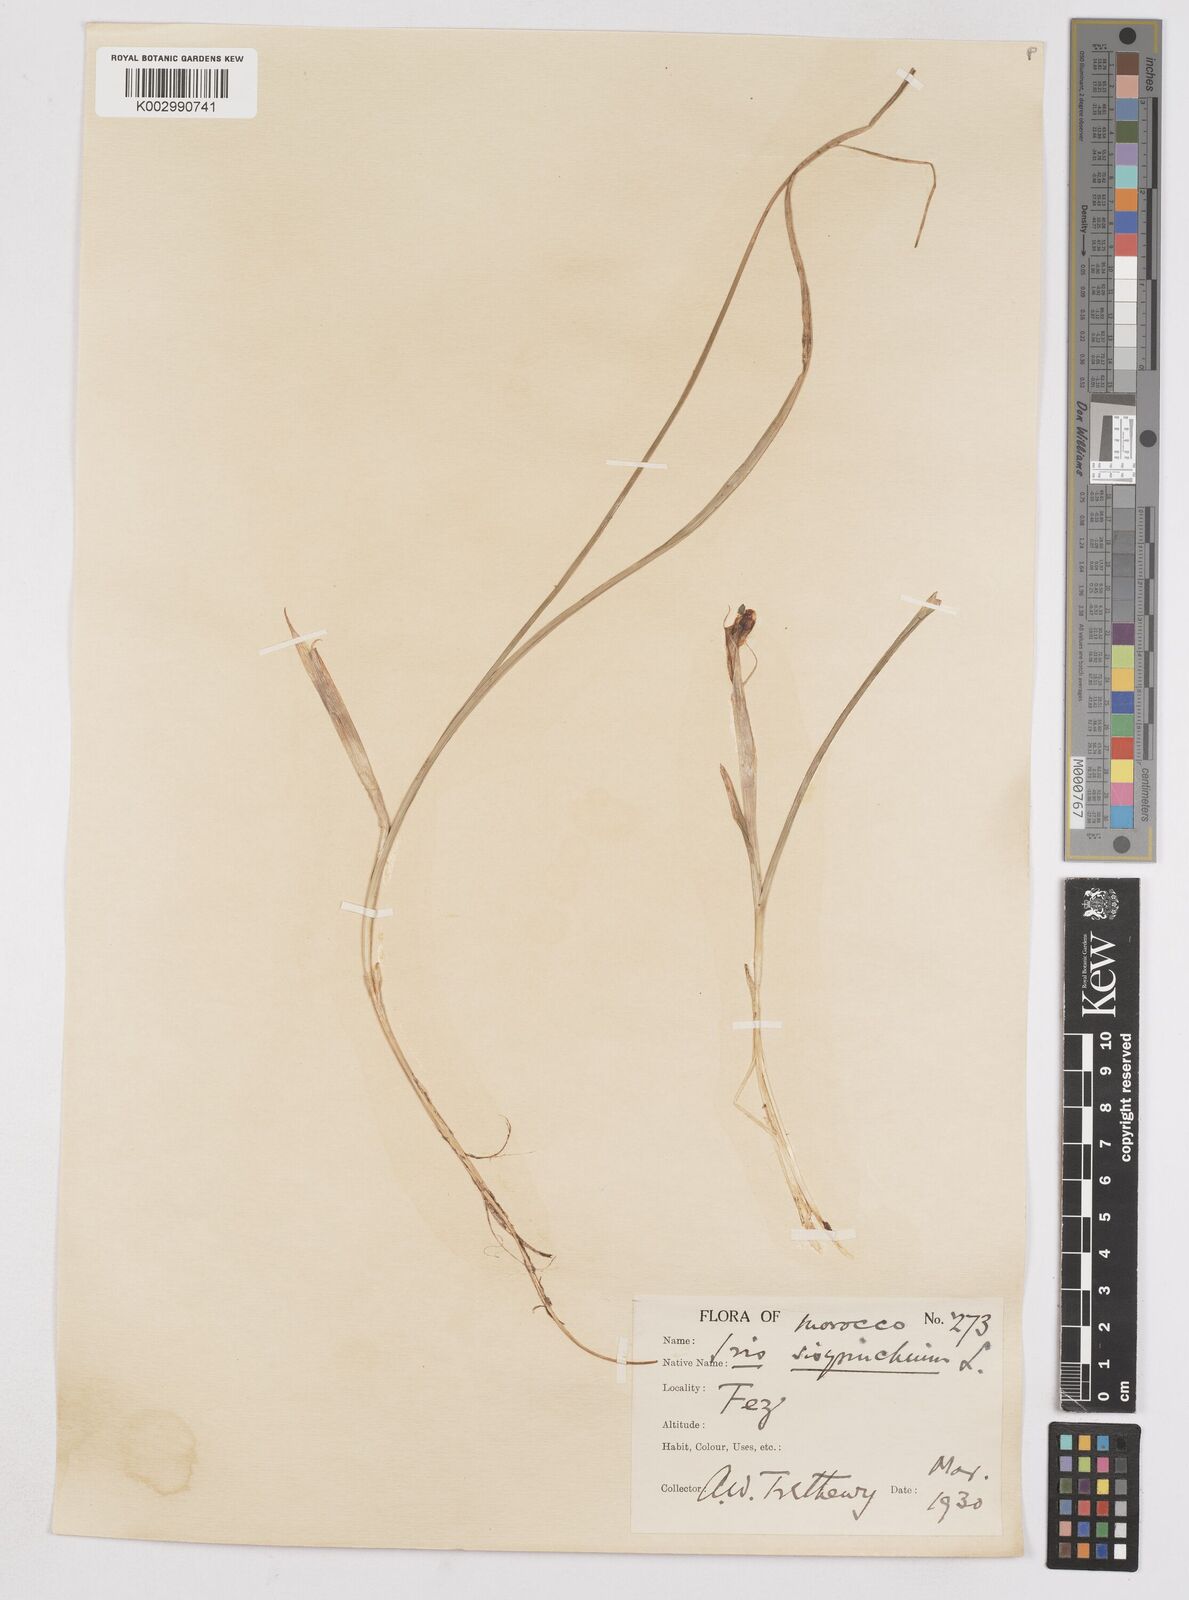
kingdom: Plantae
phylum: Tracheophyta
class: Liliopsida
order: Asparagales
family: Iridaceae
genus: Moraea
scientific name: Moraea sisyrinchium
